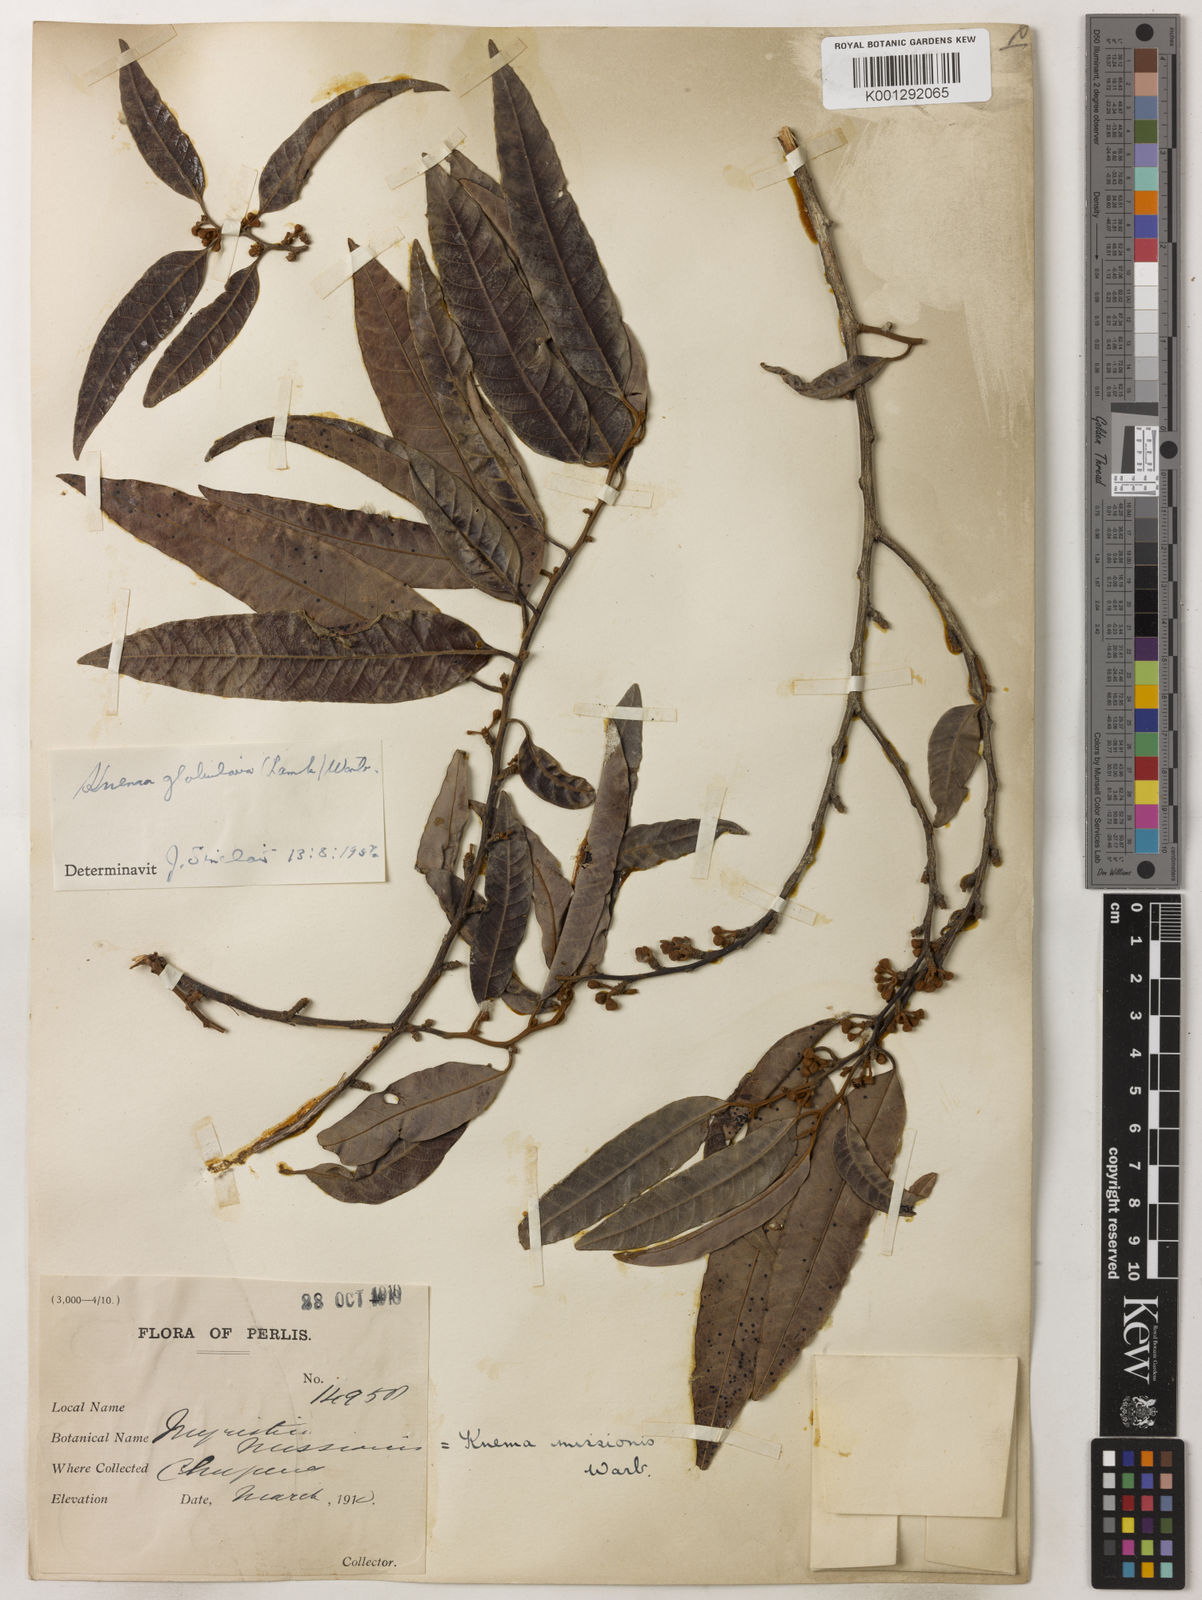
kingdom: Plantae
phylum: Tracheophyta
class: Magnoliopsida
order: Magnoliales
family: Myristicaceae
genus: Knema
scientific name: Knema globularia
